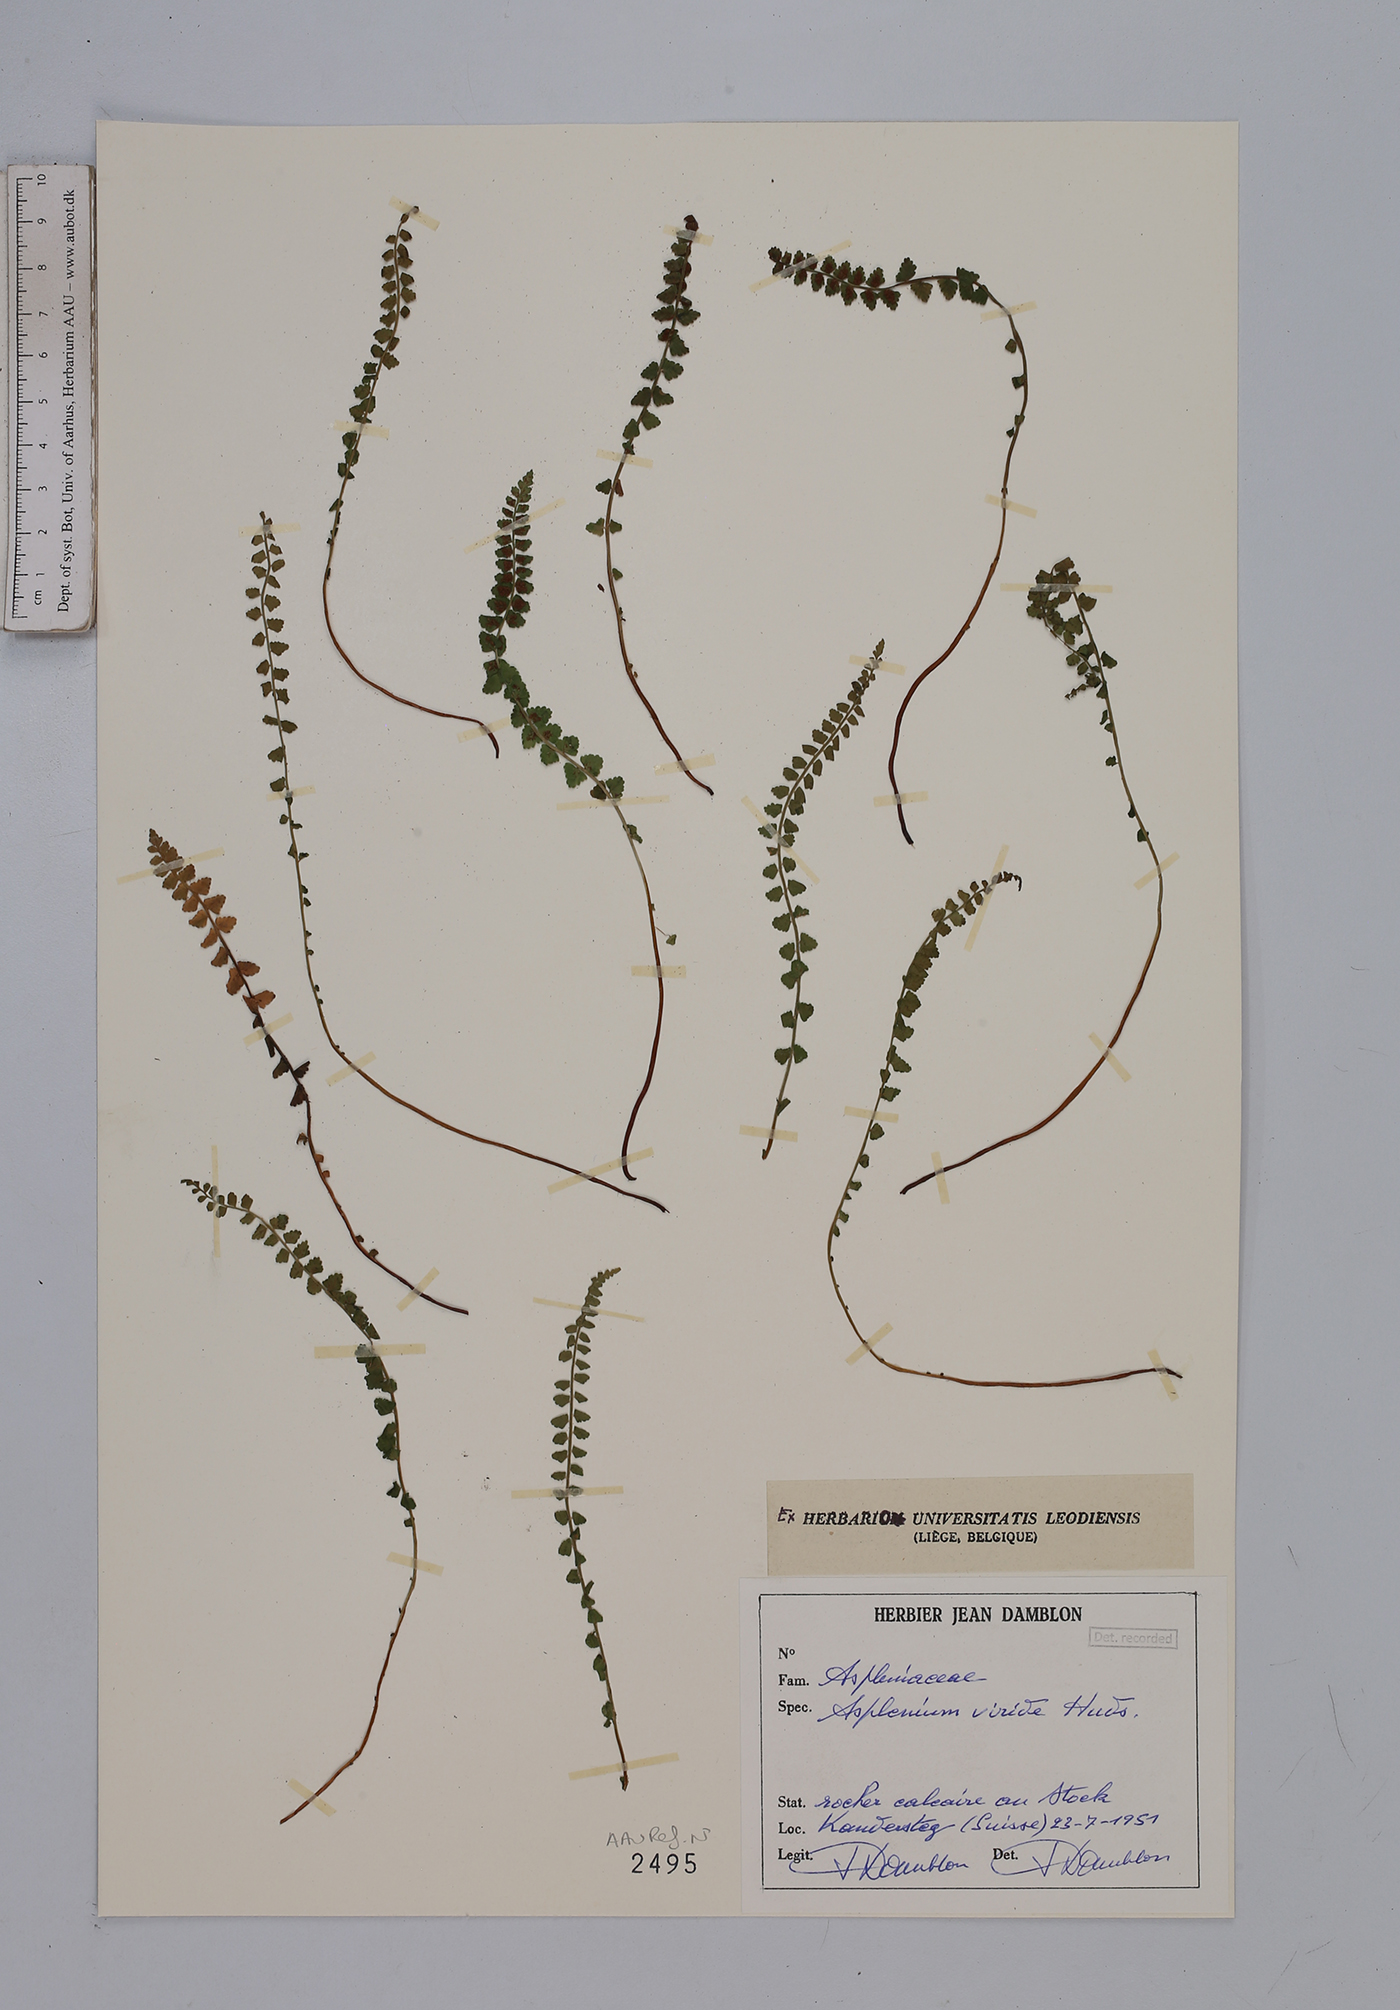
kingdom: Plantae
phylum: Tracheophyta
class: Polypodiopsida
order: Polypodiales
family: Aspleniaceae
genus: Asplenium
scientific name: Asplenium viride
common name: Green spleenwort
